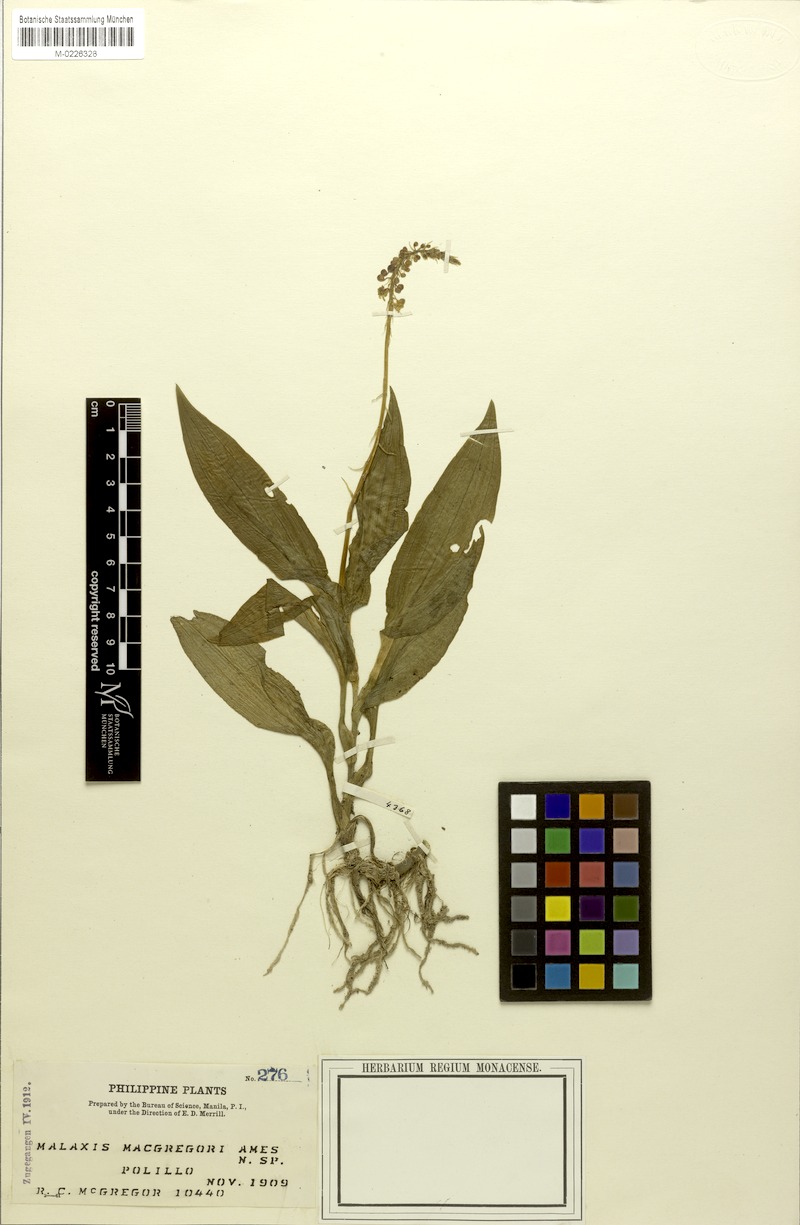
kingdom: Plantae
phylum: Tracheophyta
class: Liliopsida
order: Asparagales
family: Orchidaceae
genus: Crepidium
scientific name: Crepidium bancanoides
